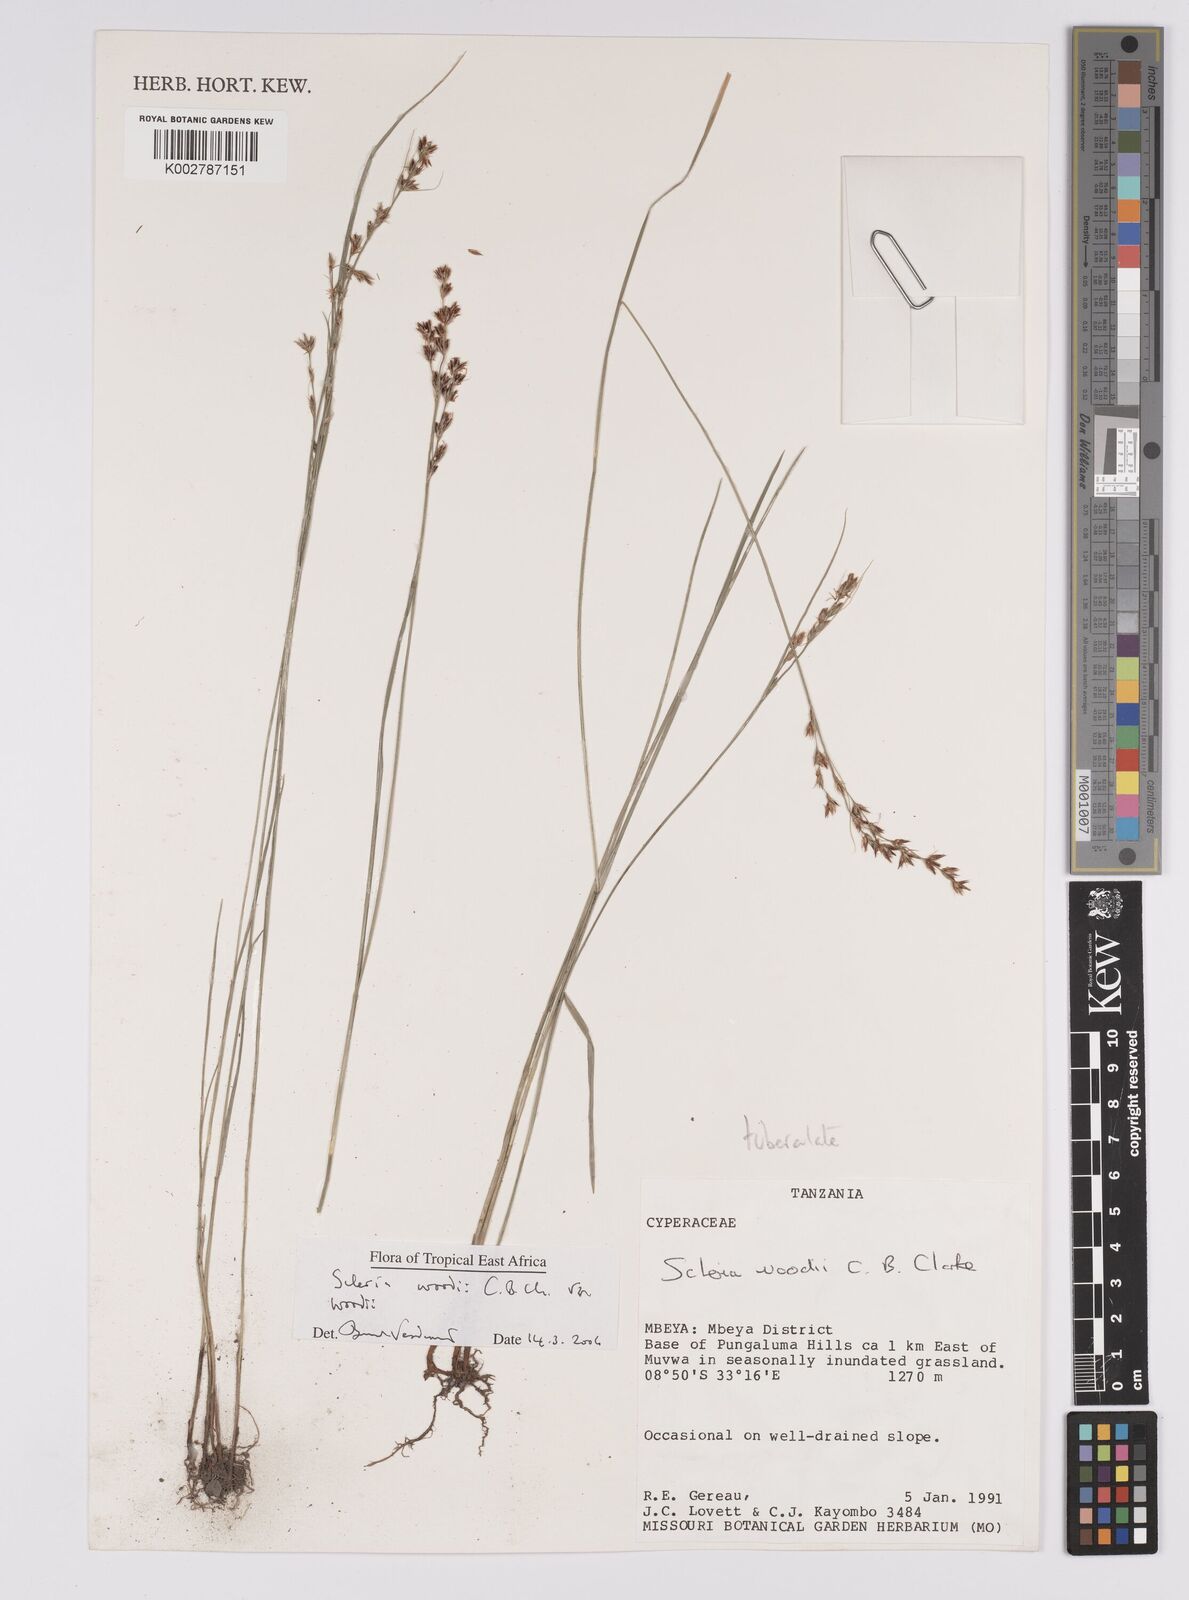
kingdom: Plantae
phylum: Tracheophyta
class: Liliopsida
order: Poales
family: Cyperaceae
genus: Scleria
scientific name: Scleria woodii
